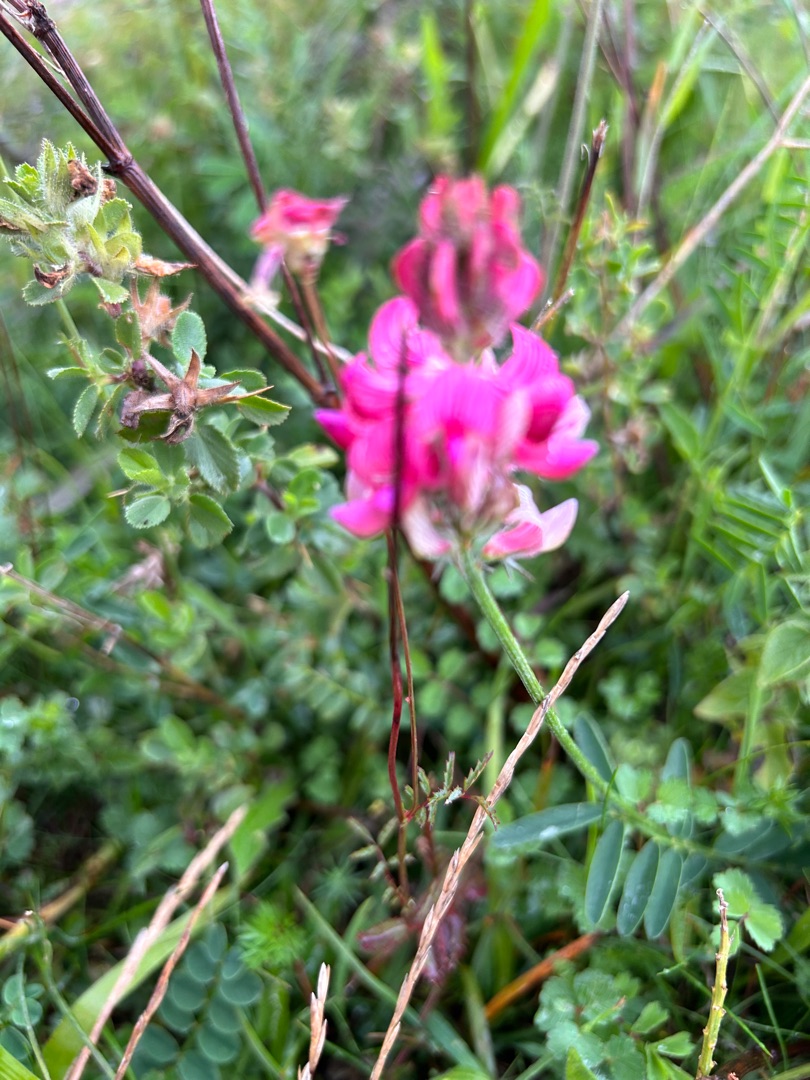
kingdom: Plantae
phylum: Tracheophyta
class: Magnoliopsida
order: Fabales
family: Fabaceae
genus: Onobrychis
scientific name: Onobrychis viciifolia
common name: Esparsette
